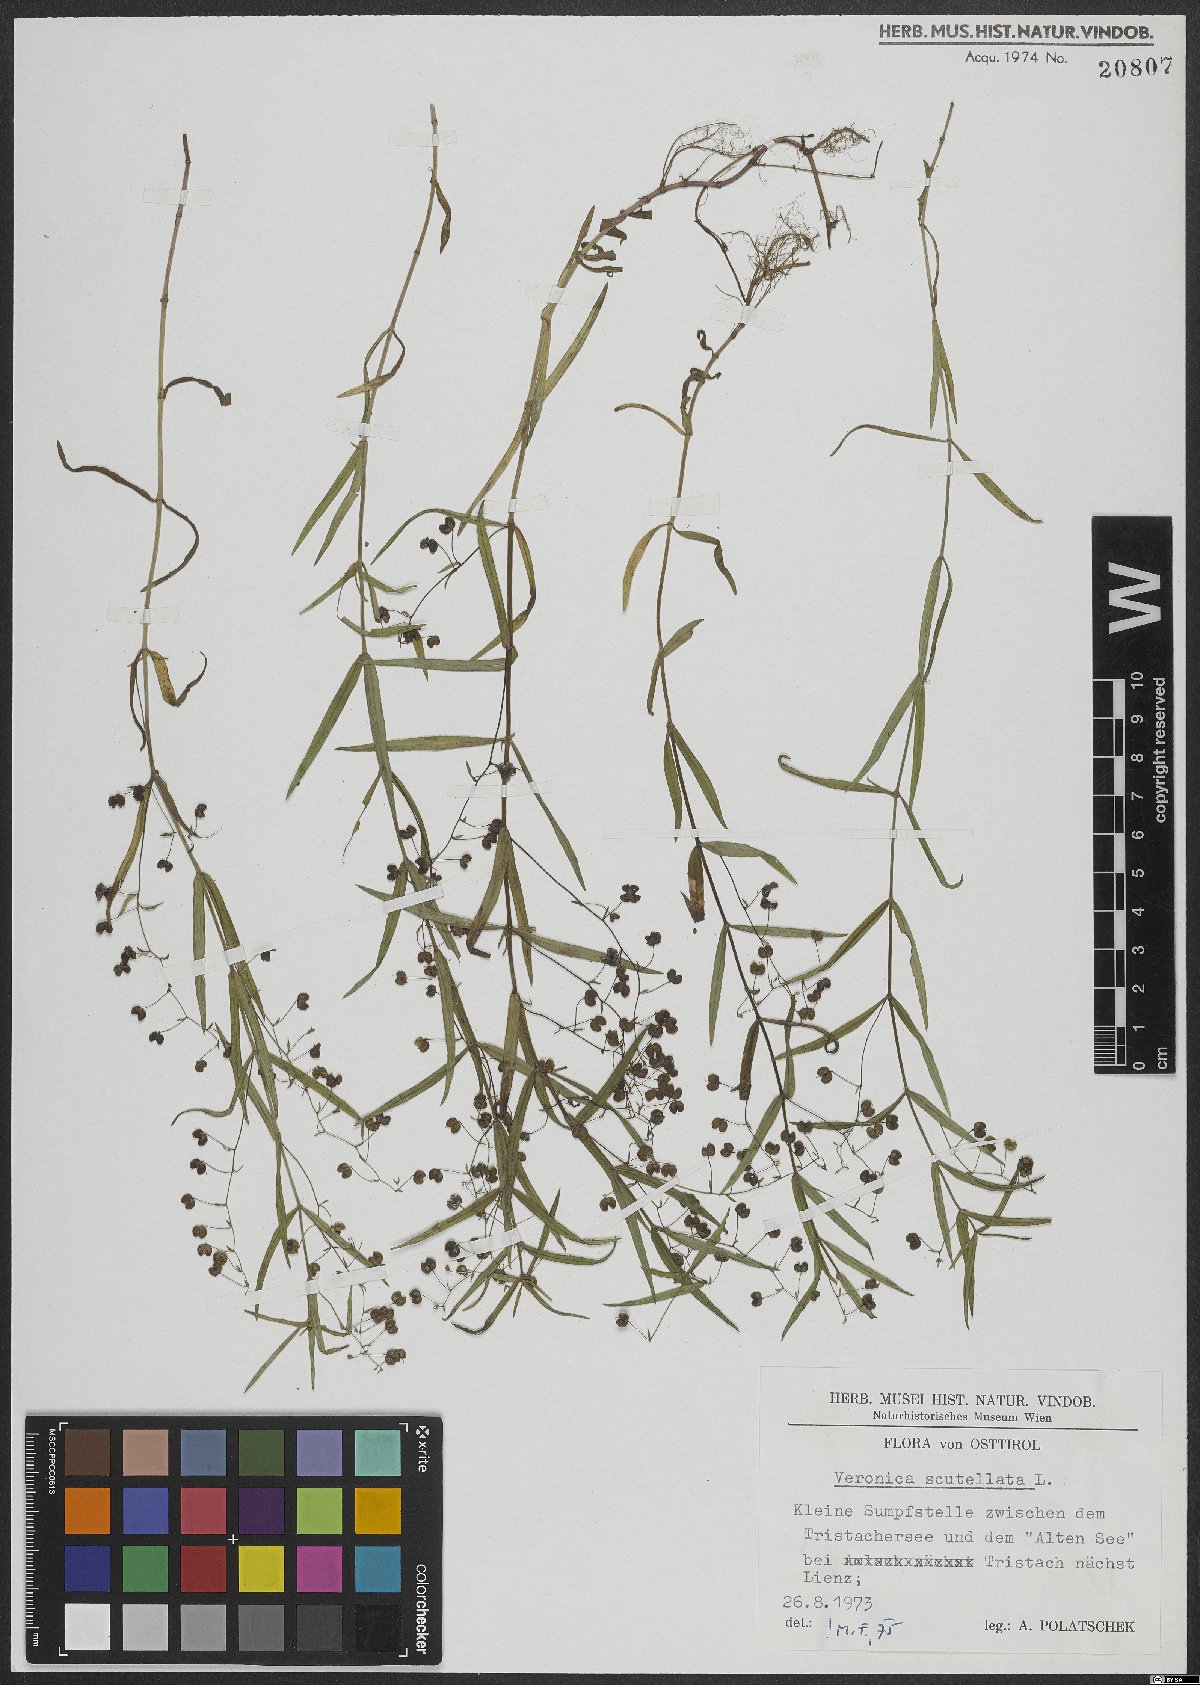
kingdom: Plantae
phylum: Tracheophyta
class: Magnoliopsida
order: Lamiales
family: Plantaginaceae
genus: Veronica
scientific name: Veronica scutellata
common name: Marsh speedwell
